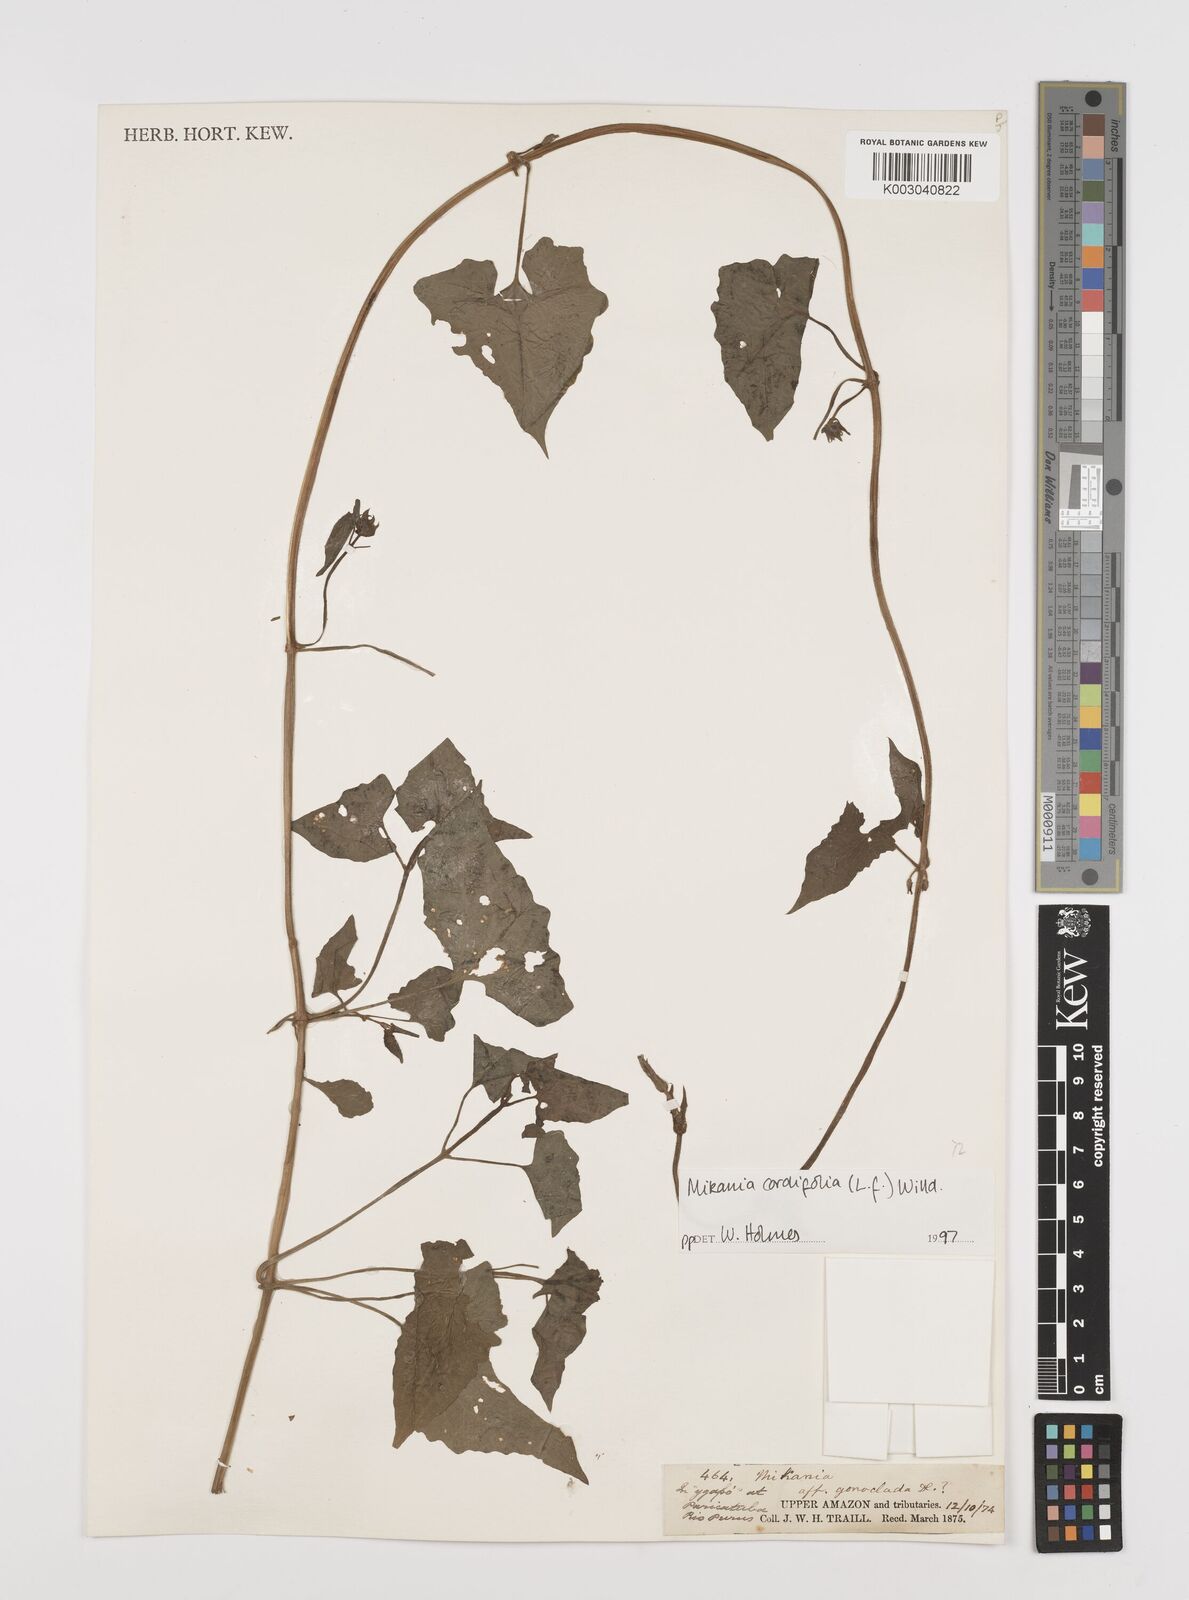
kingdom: Plantae
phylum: Tracheophyta
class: Magnoliopsida
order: Asterales
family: Asteraceae
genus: Mikania
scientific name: Mikania cordifolia
